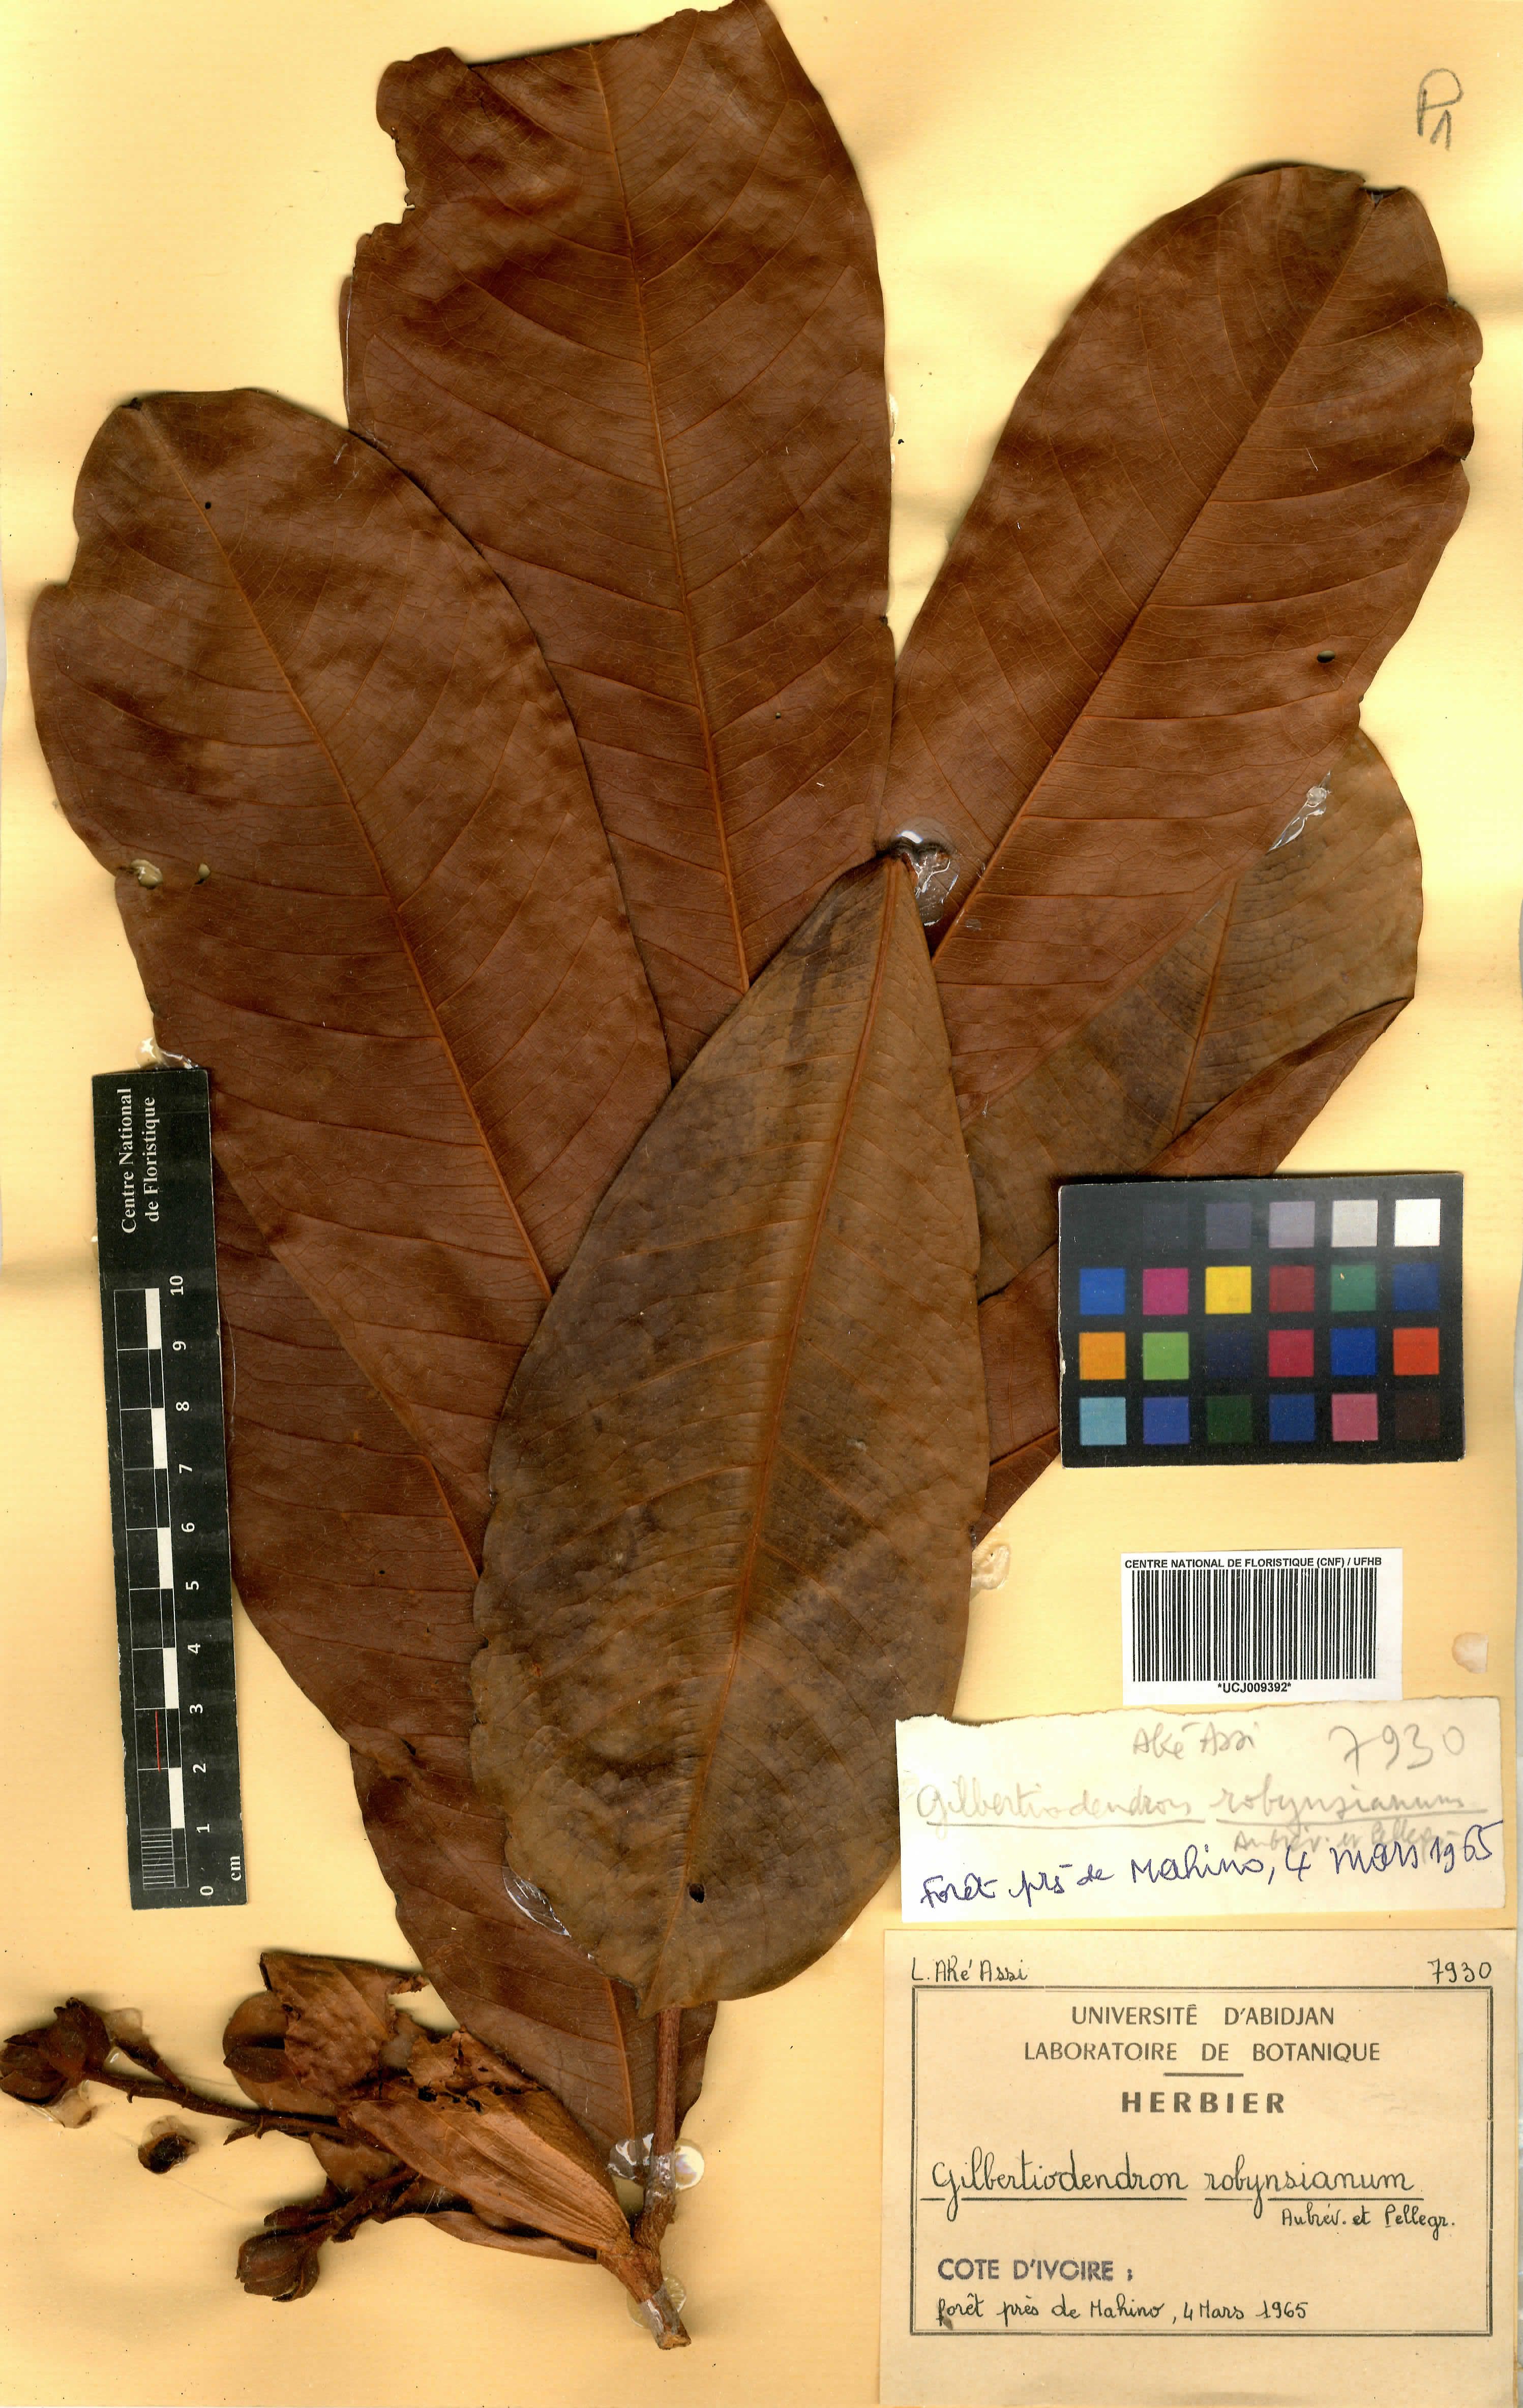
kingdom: Plantae
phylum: Tracheophyta
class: Magnoliopsida
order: Fabales
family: Fabaceae
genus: Gilbertiodendron
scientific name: Gilbertiodendron robynsianum
